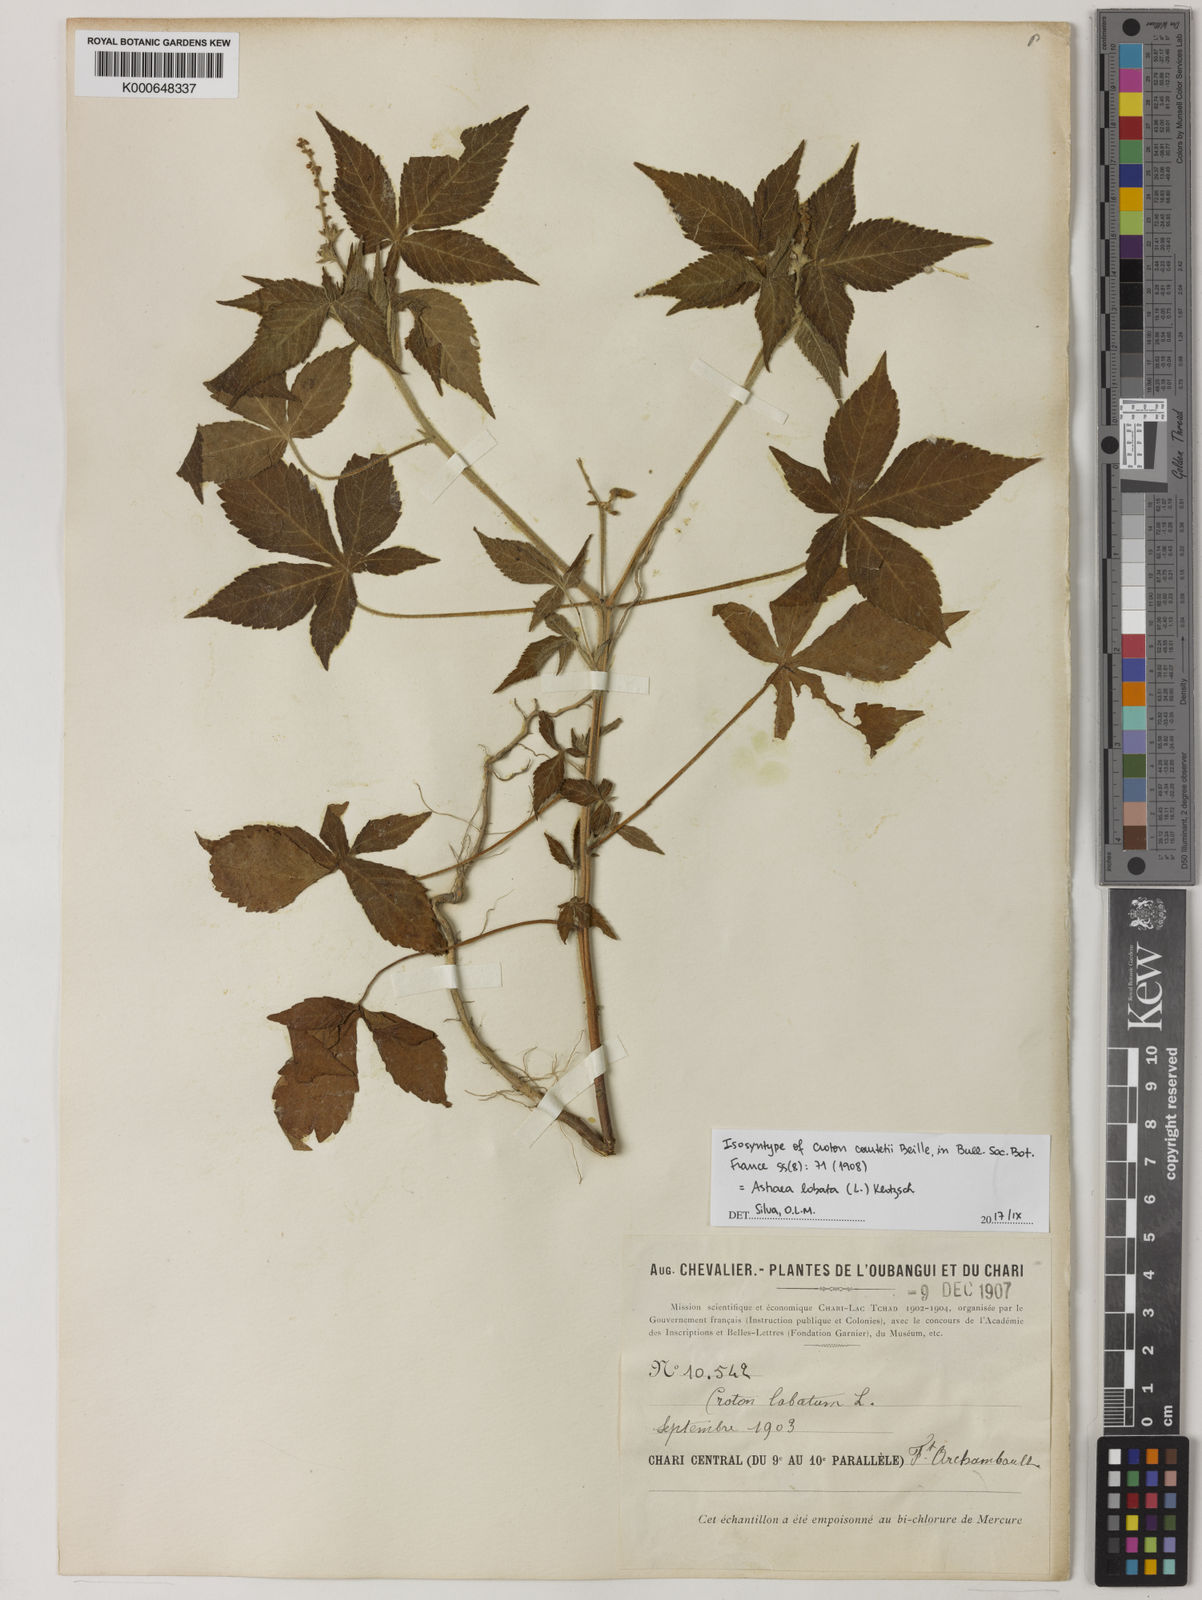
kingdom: Plantae
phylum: Tracheophyta
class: Magnoliopsida
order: Malpighiales
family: Euphorbiaceae
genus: Astraea
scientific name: Astraea lobata
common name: Lobed croton
